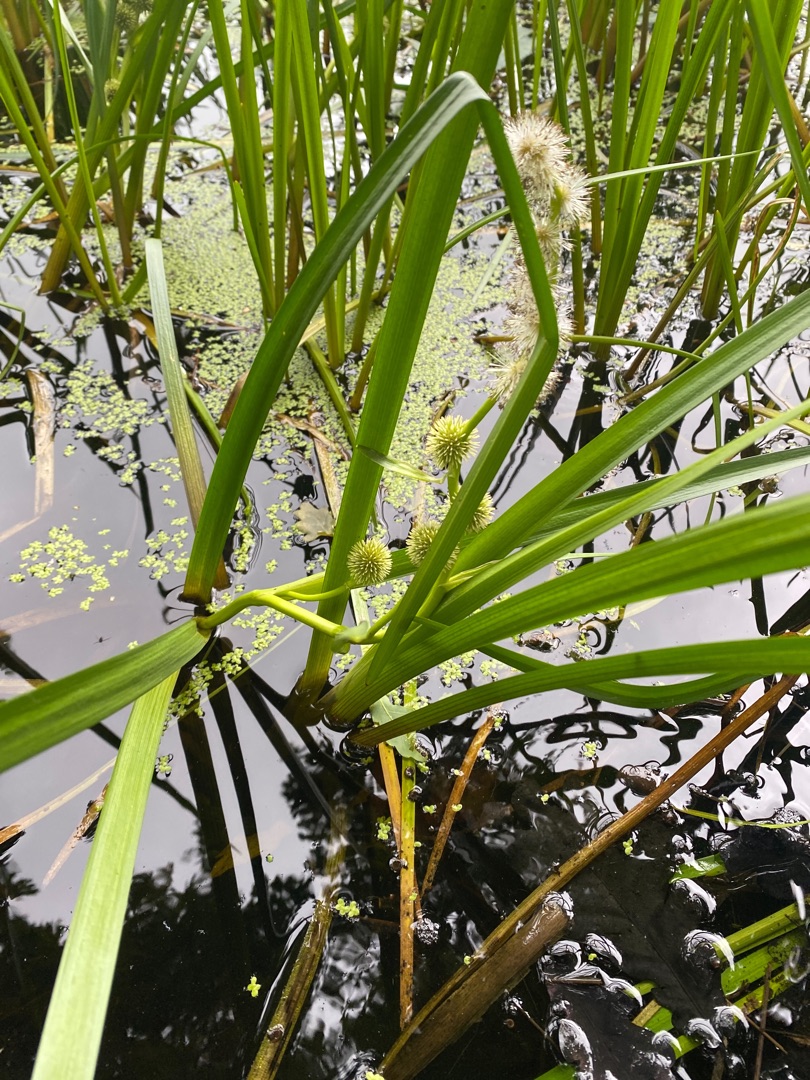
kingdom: Plantae
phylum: Tracheophyta
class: Liliopsida
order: Poales
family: Typhaceae
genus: Sparganium
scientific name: Sparganium emersum
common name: Enkelt pindsvineknop
